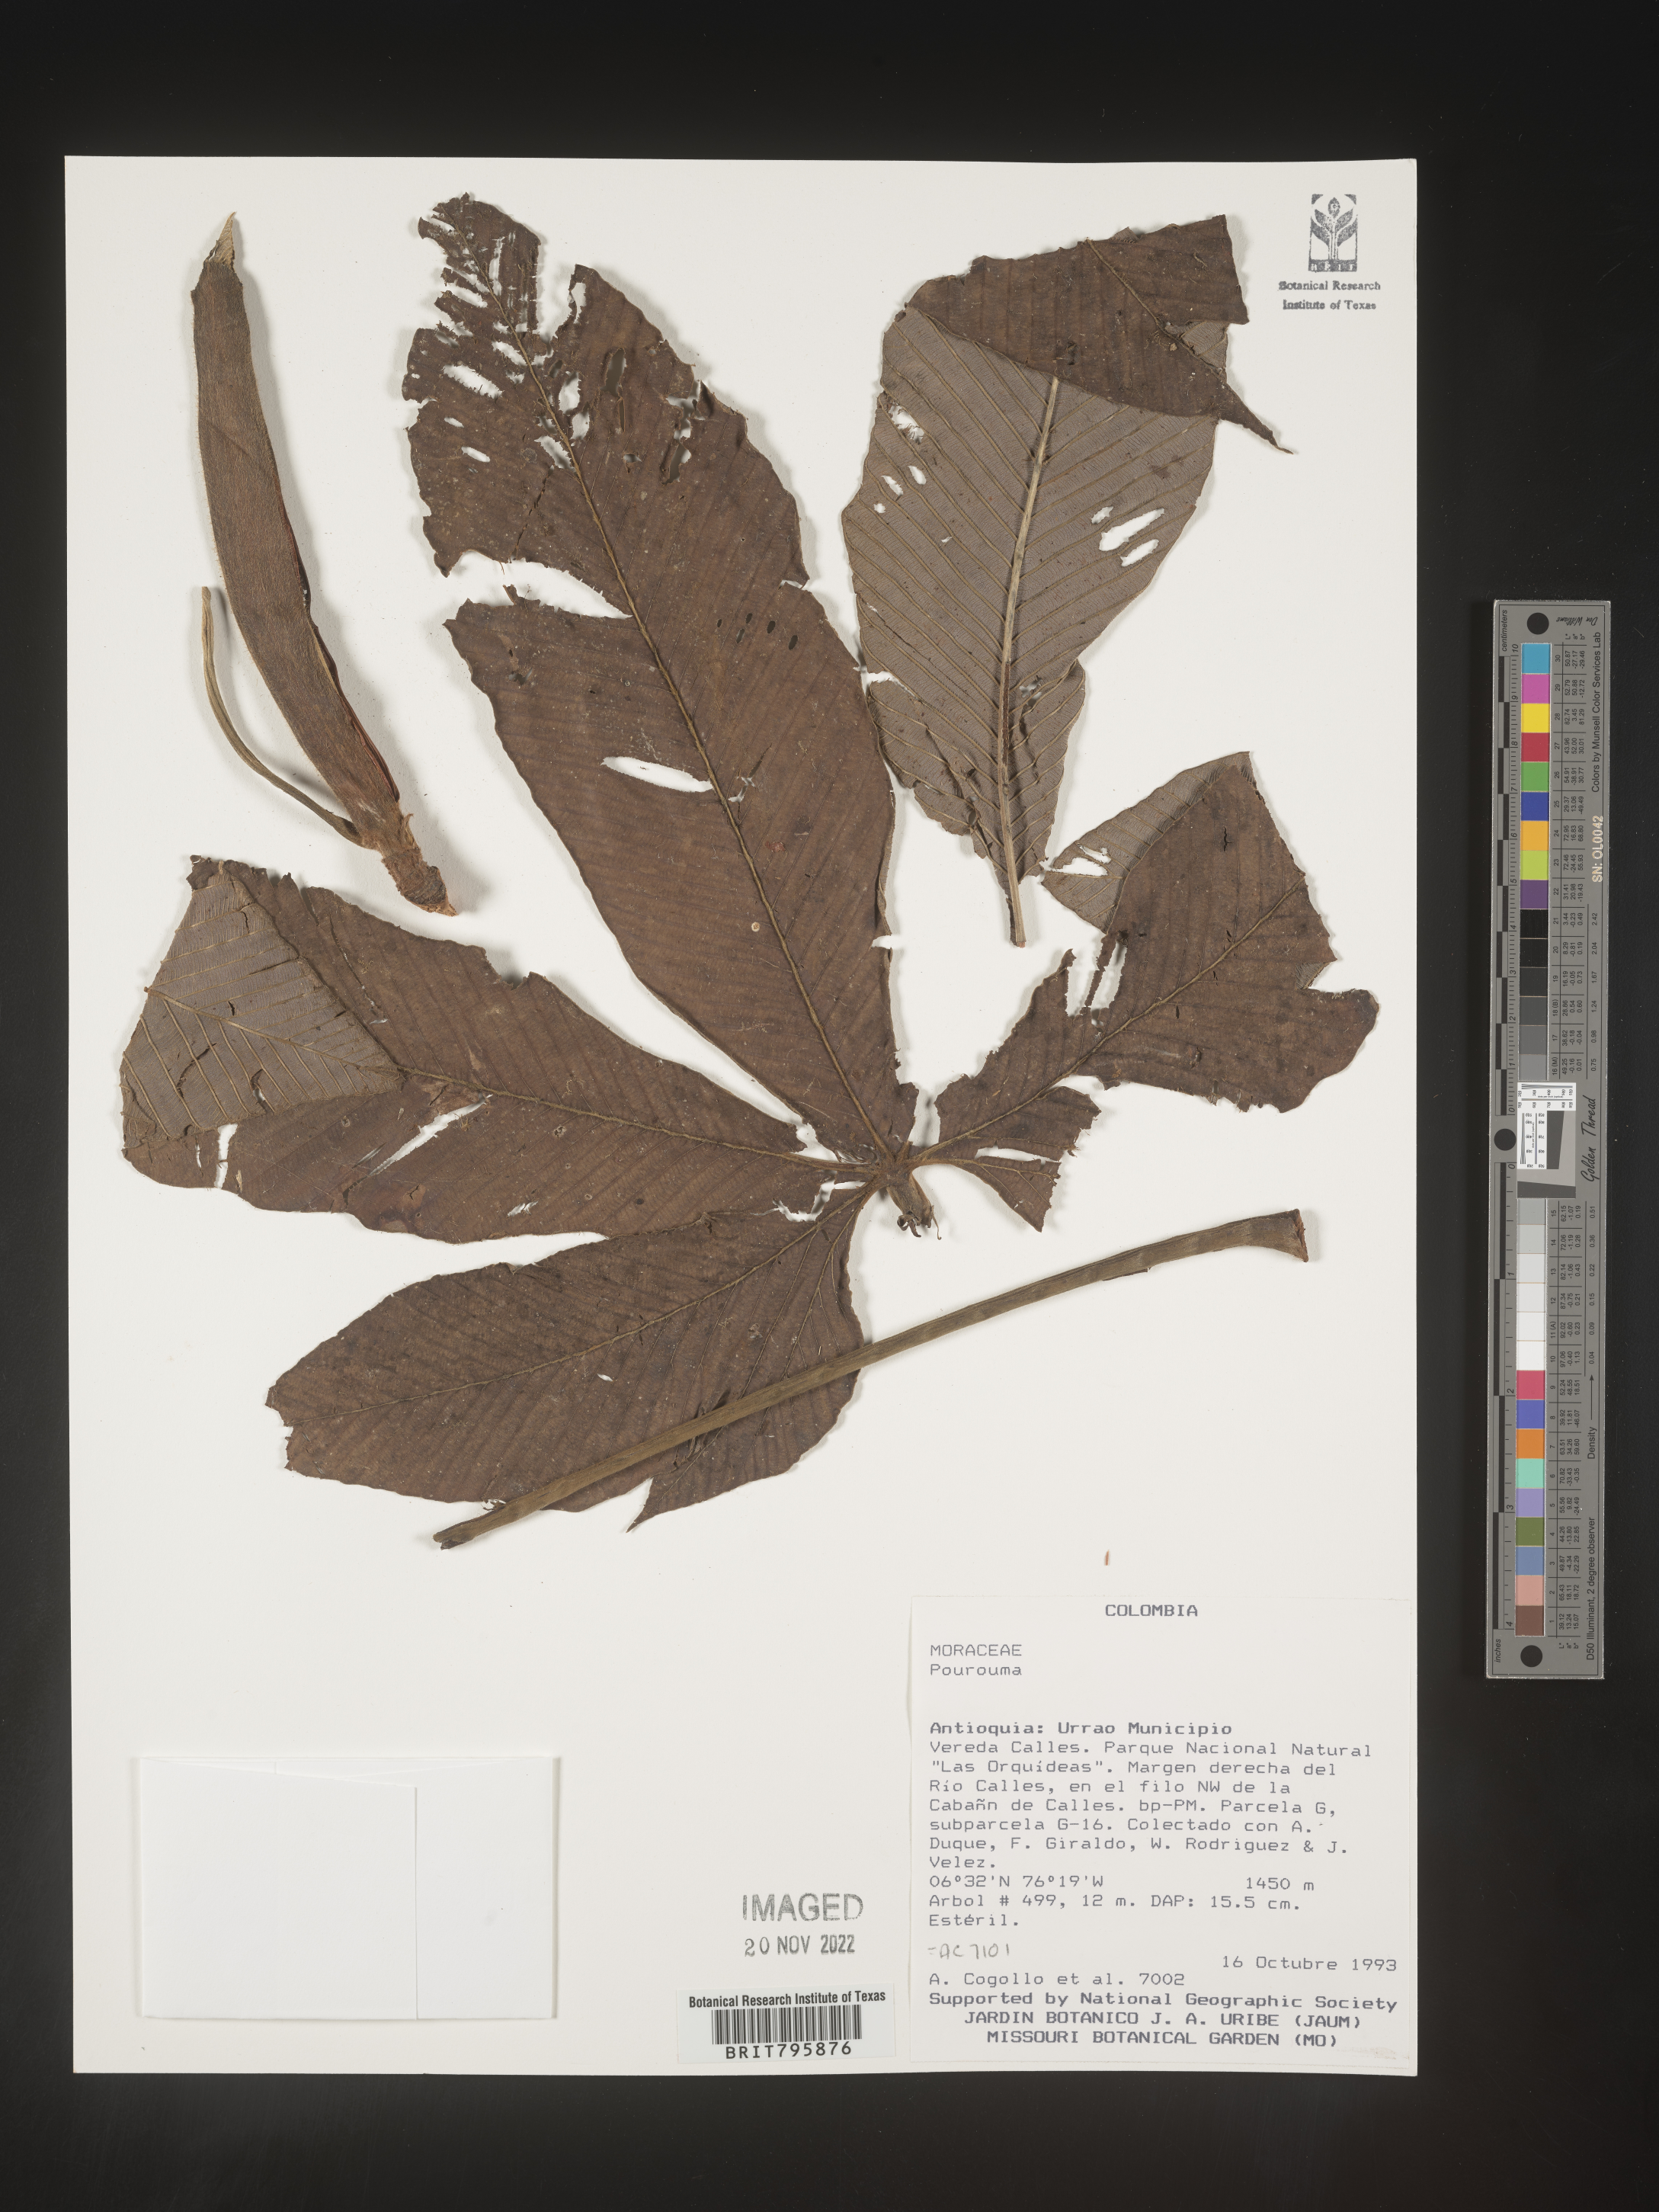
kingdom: Plantae
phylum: Tracheophyta
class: Magnoliopsida
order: Rosales
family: Urticaceae
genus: Pourouma
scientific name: Pourouma
